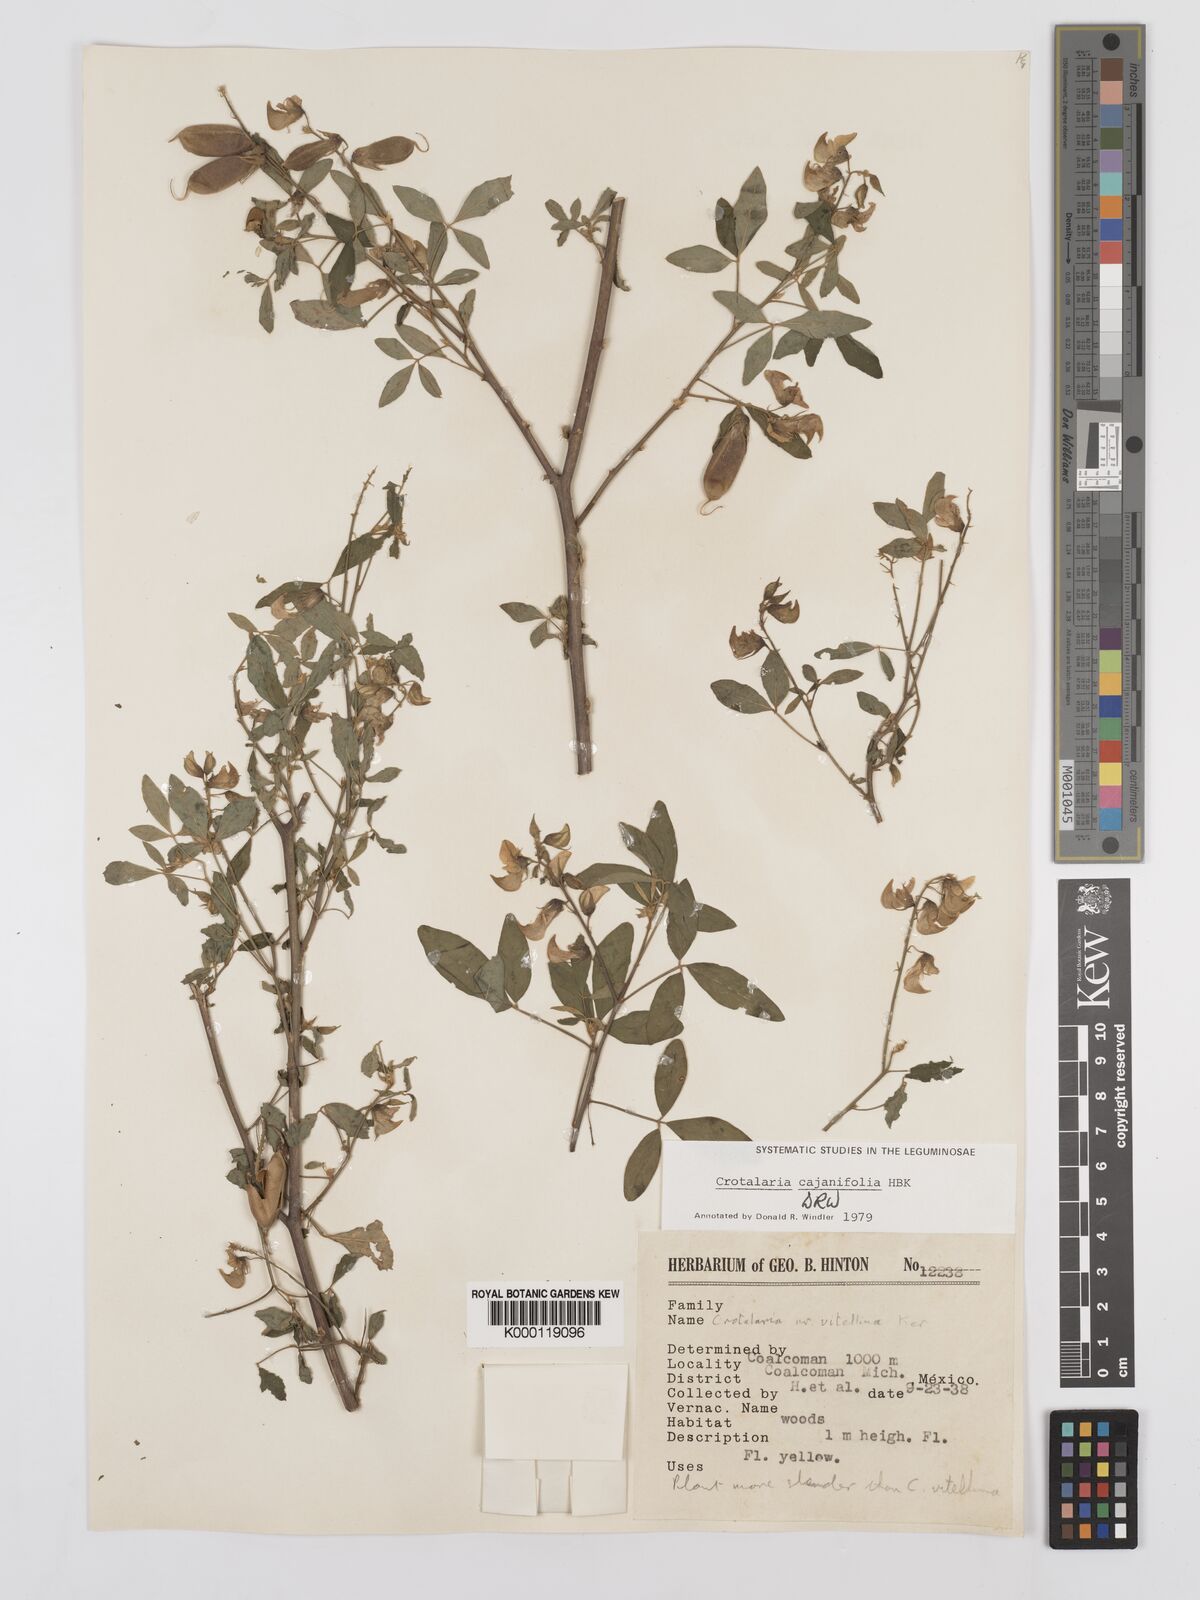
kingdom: Plantae
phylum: Tracheophyta
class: Magnoliopsida
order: Fabales
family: Fabaceae
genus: Crotalaria
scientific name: Crotalaria cajanifolia
